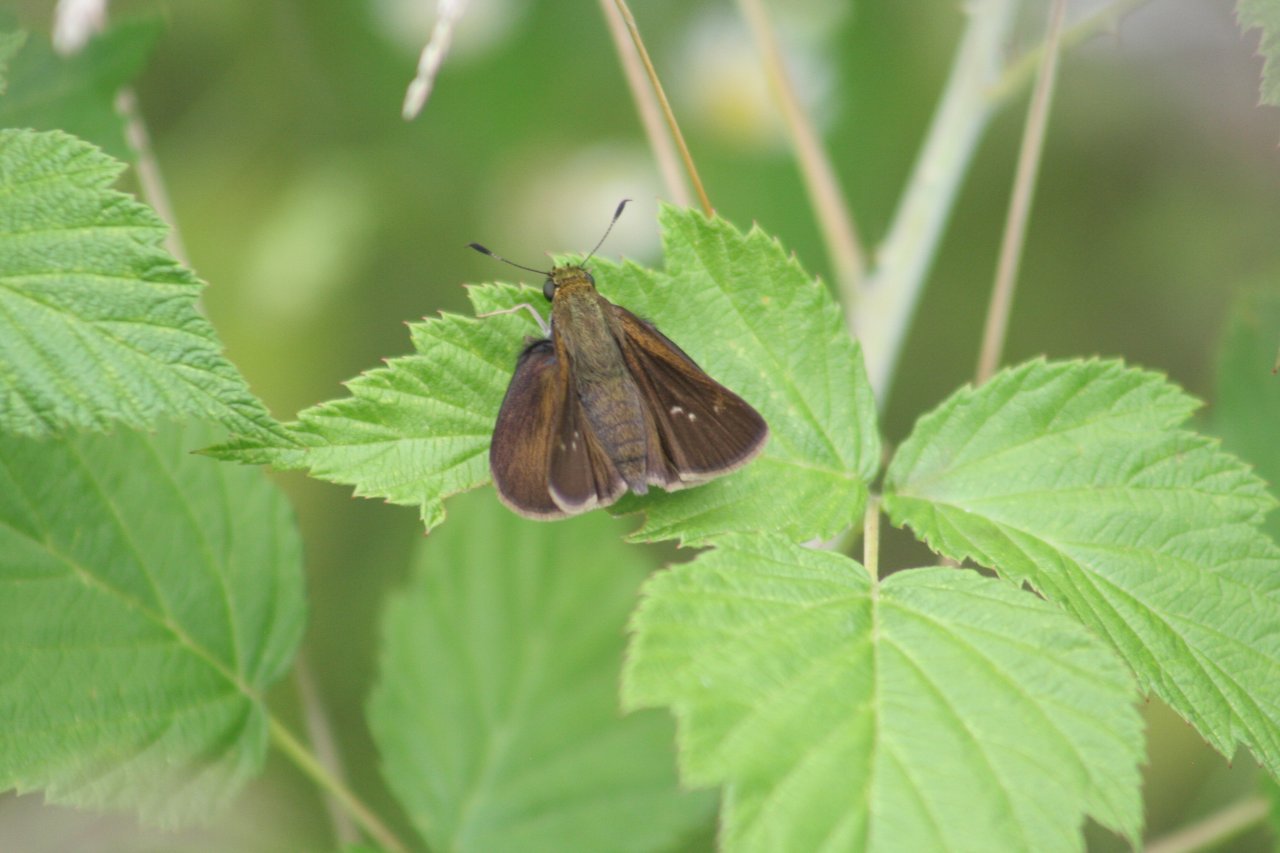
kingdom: Animalia
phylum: Arthropoda
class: Insecta
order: Lepidoptera
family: Hesperiidae
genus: Euphyes
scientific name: Euphyes vestris
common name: Dun Skipper
